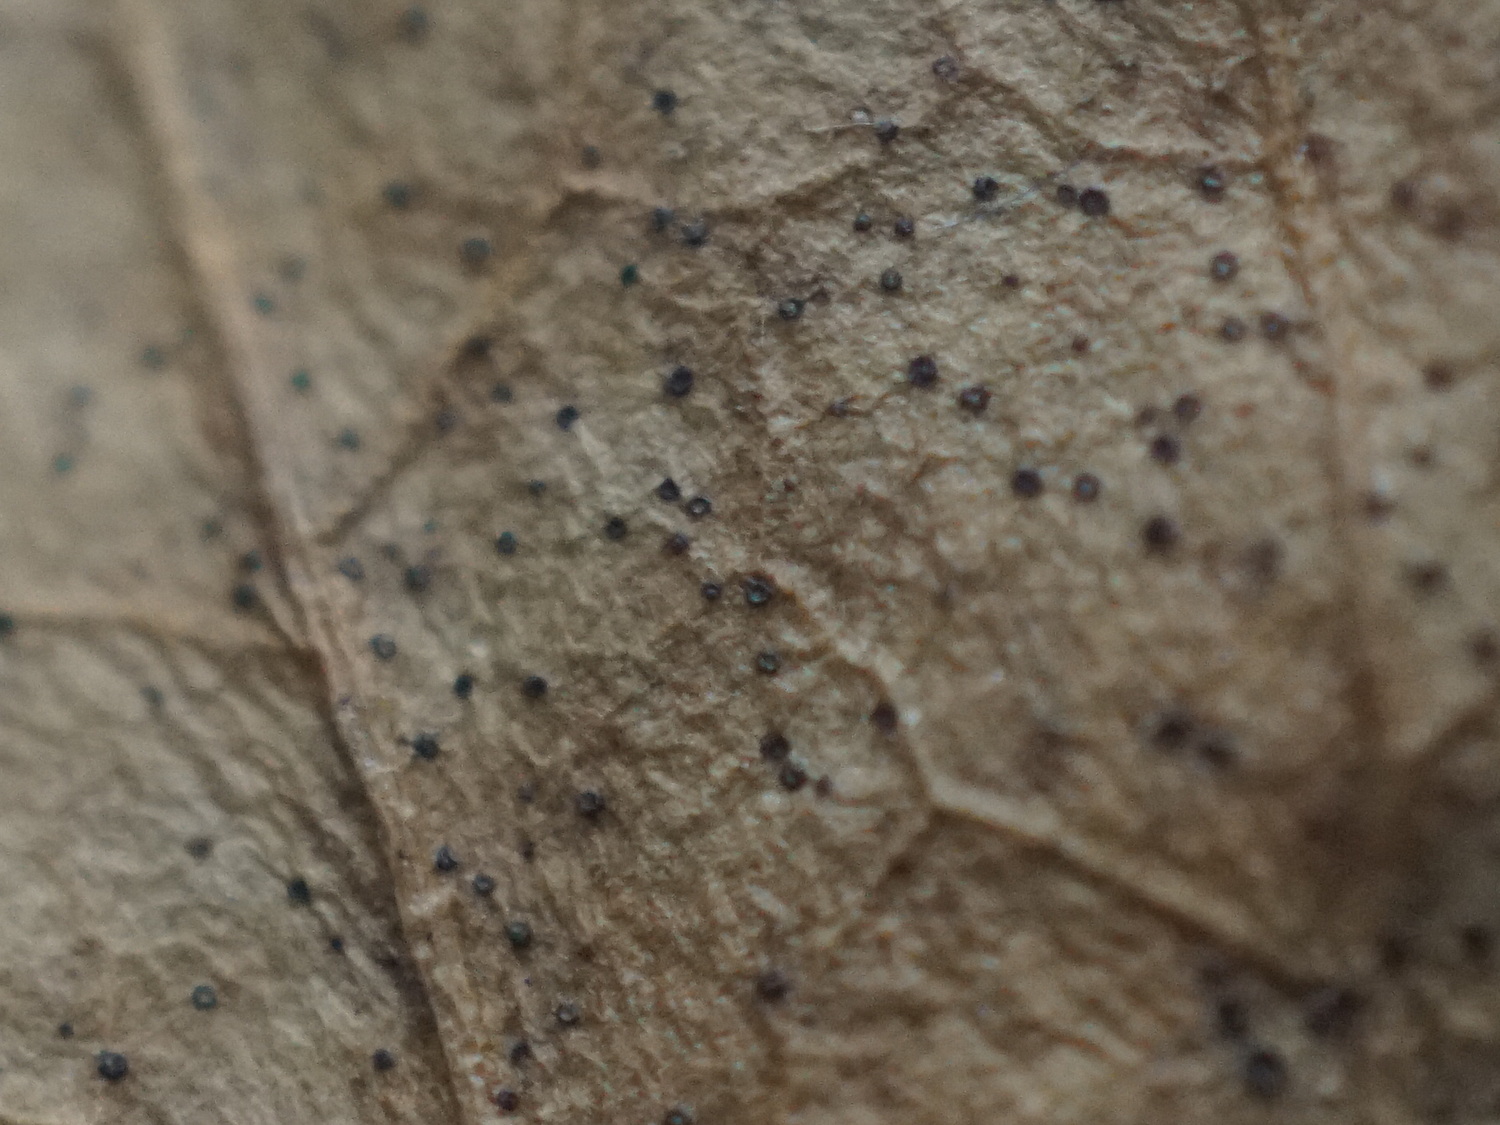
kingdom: Fungi
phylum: Ascomycota
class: Leotiomycetes
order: Helotiales
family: Cenangiaceae
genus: Trochila
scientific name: Trochila craterium
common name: vedbend-lågskive
